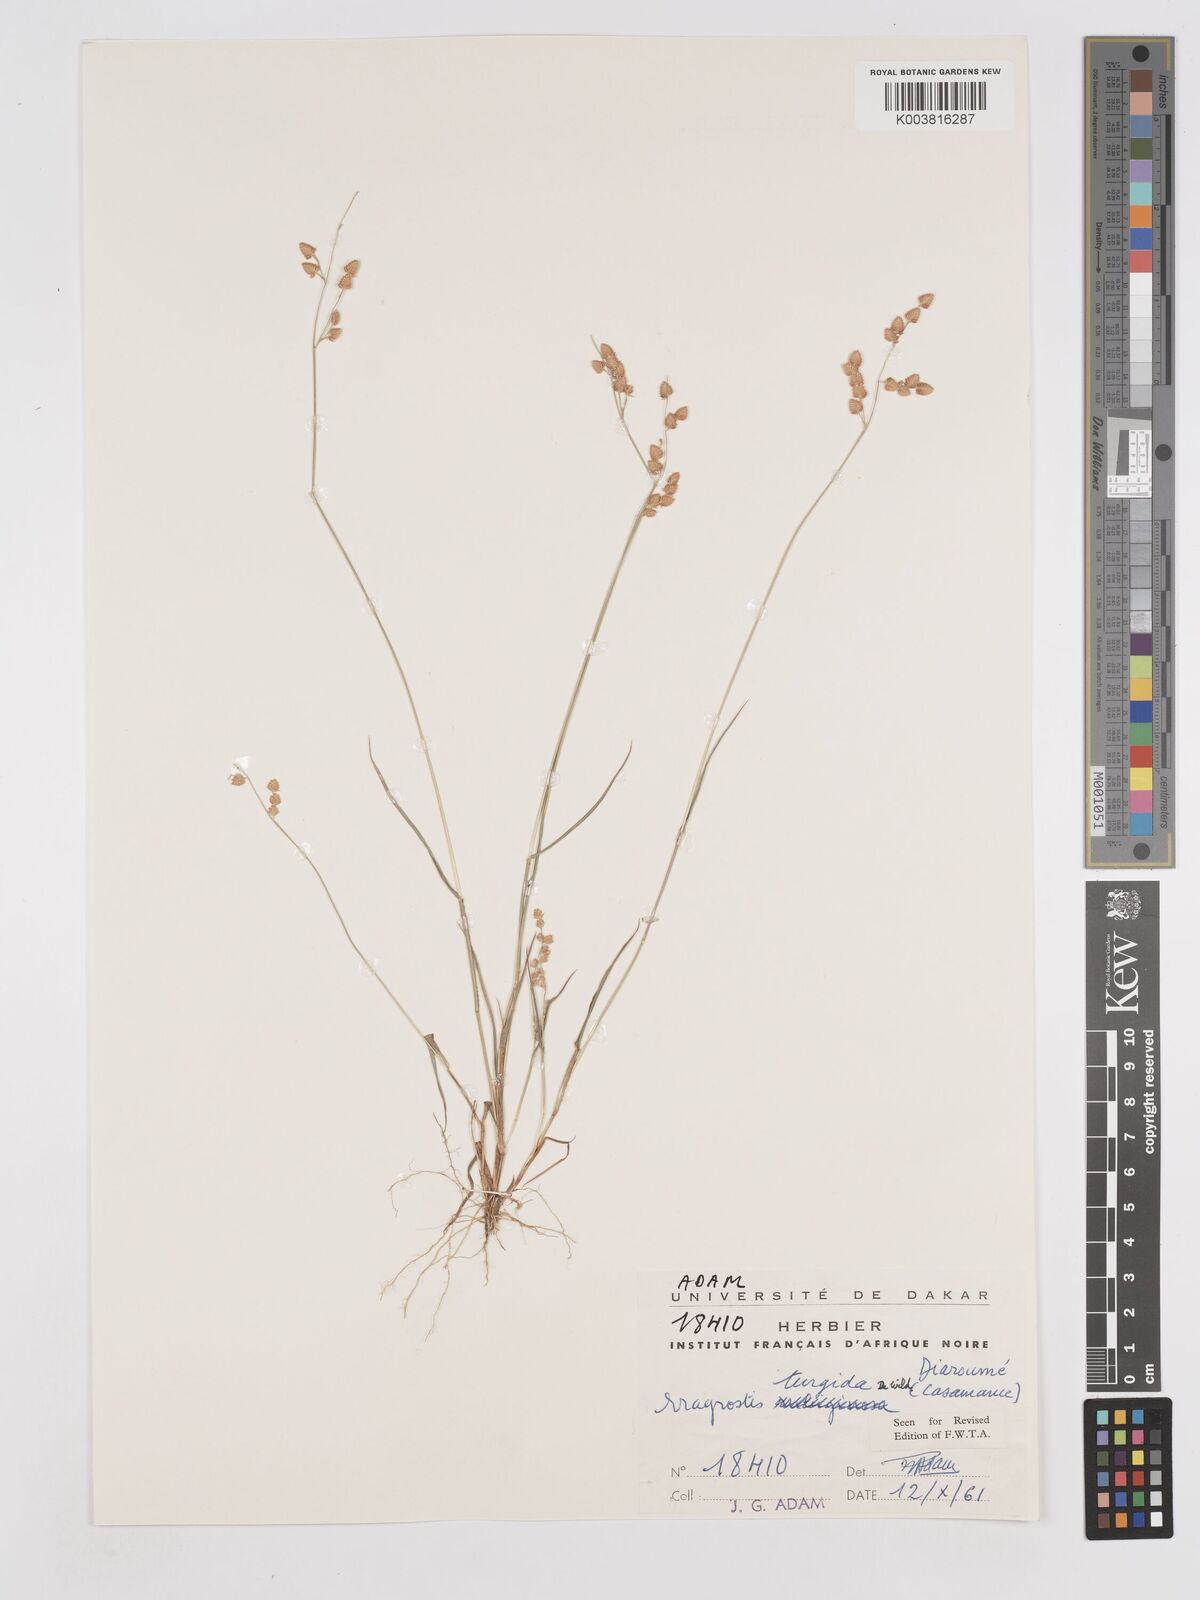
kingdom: Plantae
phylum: Tracheophyta
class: Liliopsida
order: Poales
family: Poaceae
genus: Eragrostis
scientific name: Eragrostis turgida
